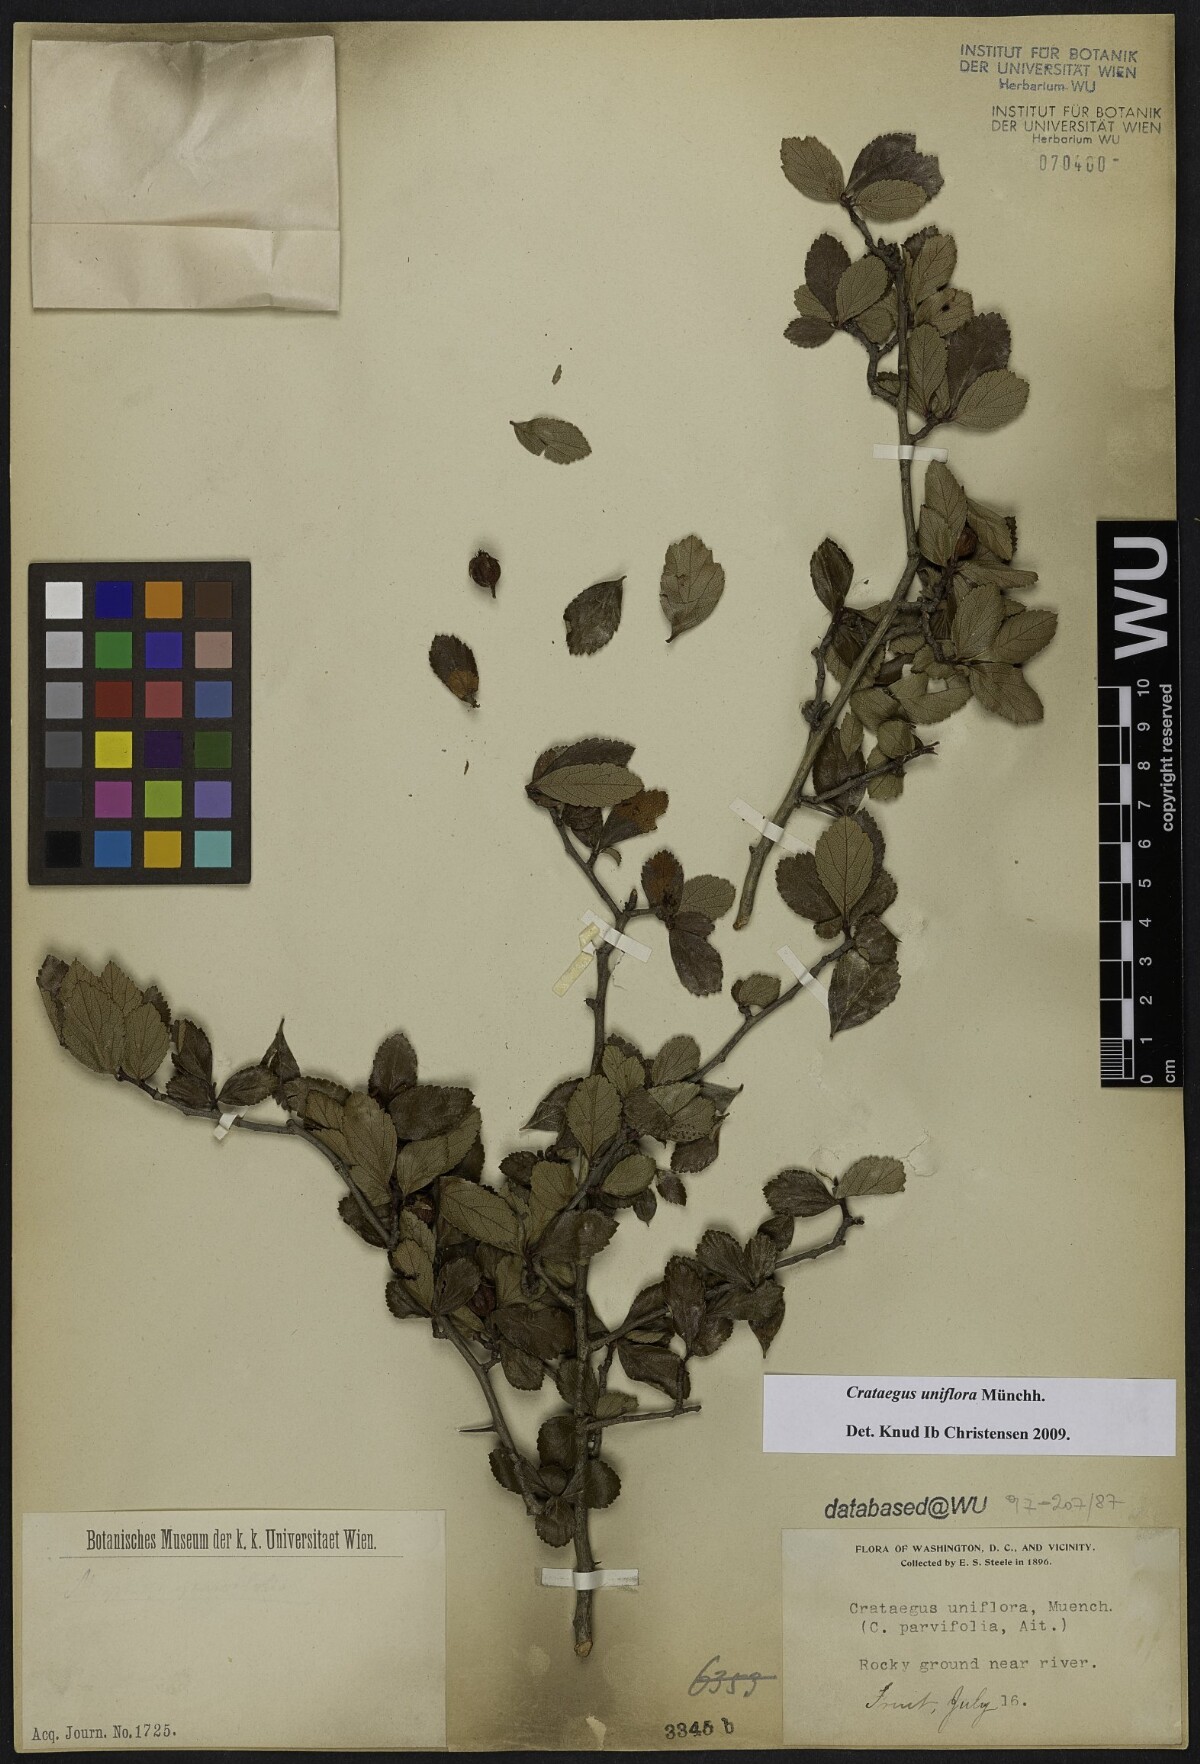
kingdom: Plantae
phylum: Tracheophyta
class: Magnoliopsida
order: Rosales
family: Rosaceae
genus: Crataegus
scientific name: Crataegus uniflora
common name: One-flower hawthorn
